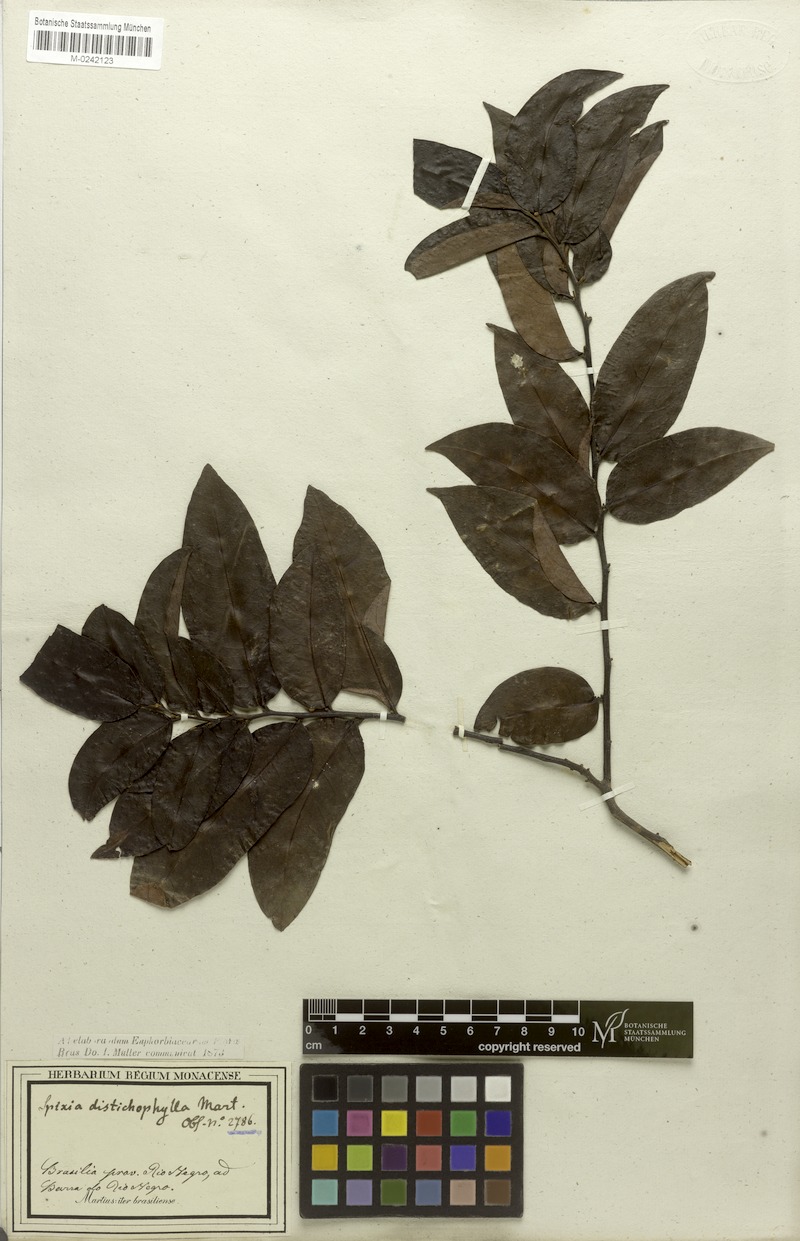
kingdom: Plantae
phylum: Tracheophyta
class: Magnoliopsida
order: Malpighiales
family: Peraceae
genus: Pera
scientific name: Pera distichophylla
